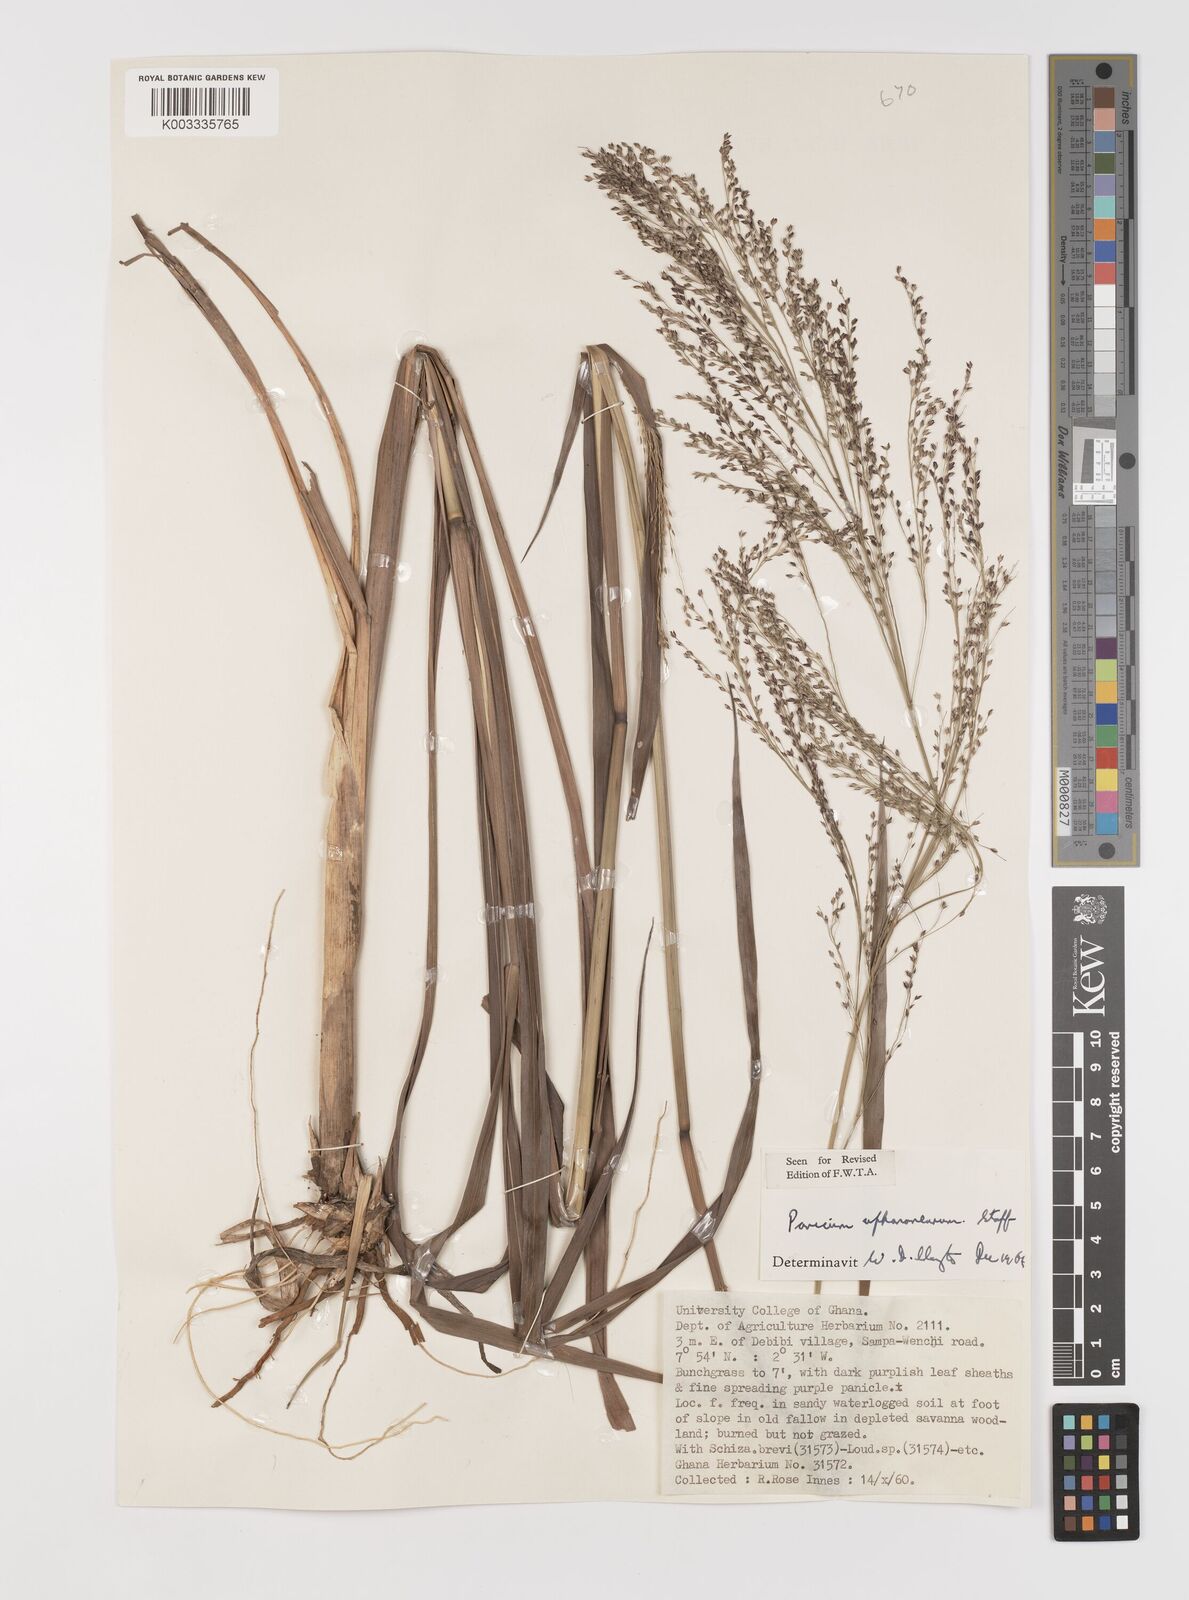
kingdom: Plantae
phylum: Tracheophyta
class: Liliopsida
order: Poales
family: Poaceae
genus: Panicum
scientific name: Panicum fluviicola
